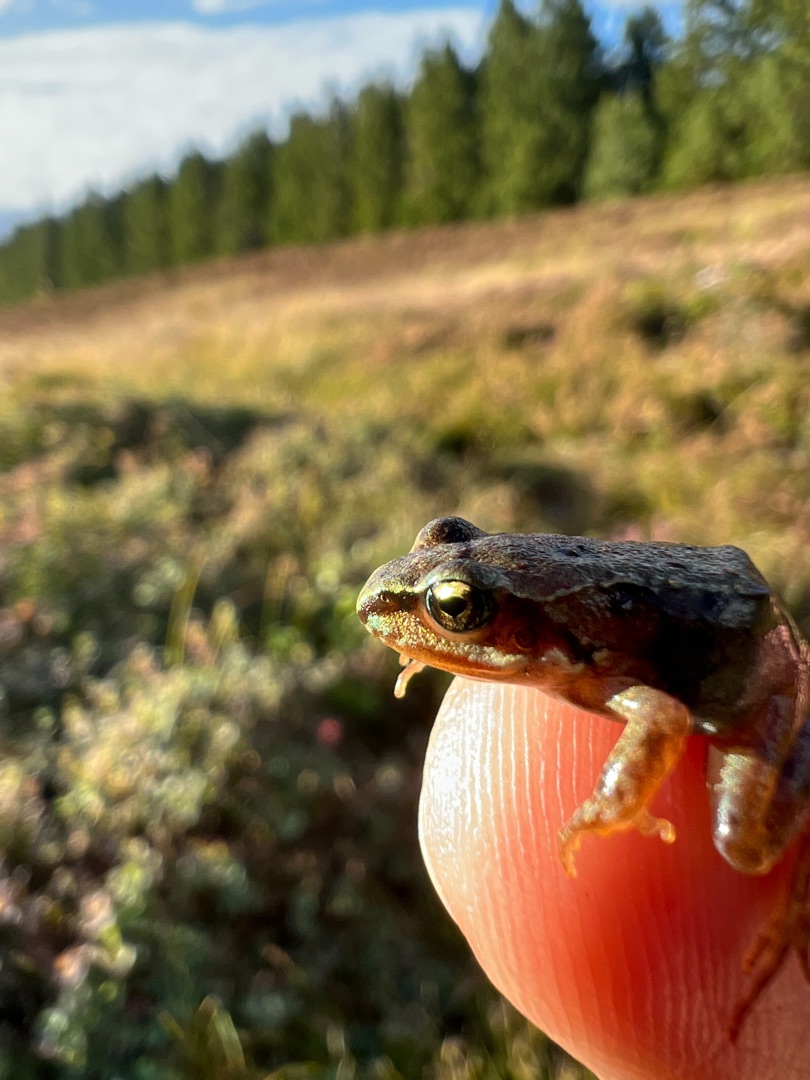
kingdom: Animalia
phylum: Chordata
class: Amphibia
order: Anura
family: Ranidae
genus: Rana
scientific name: Rana temporaria
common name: Butsnudet frø
